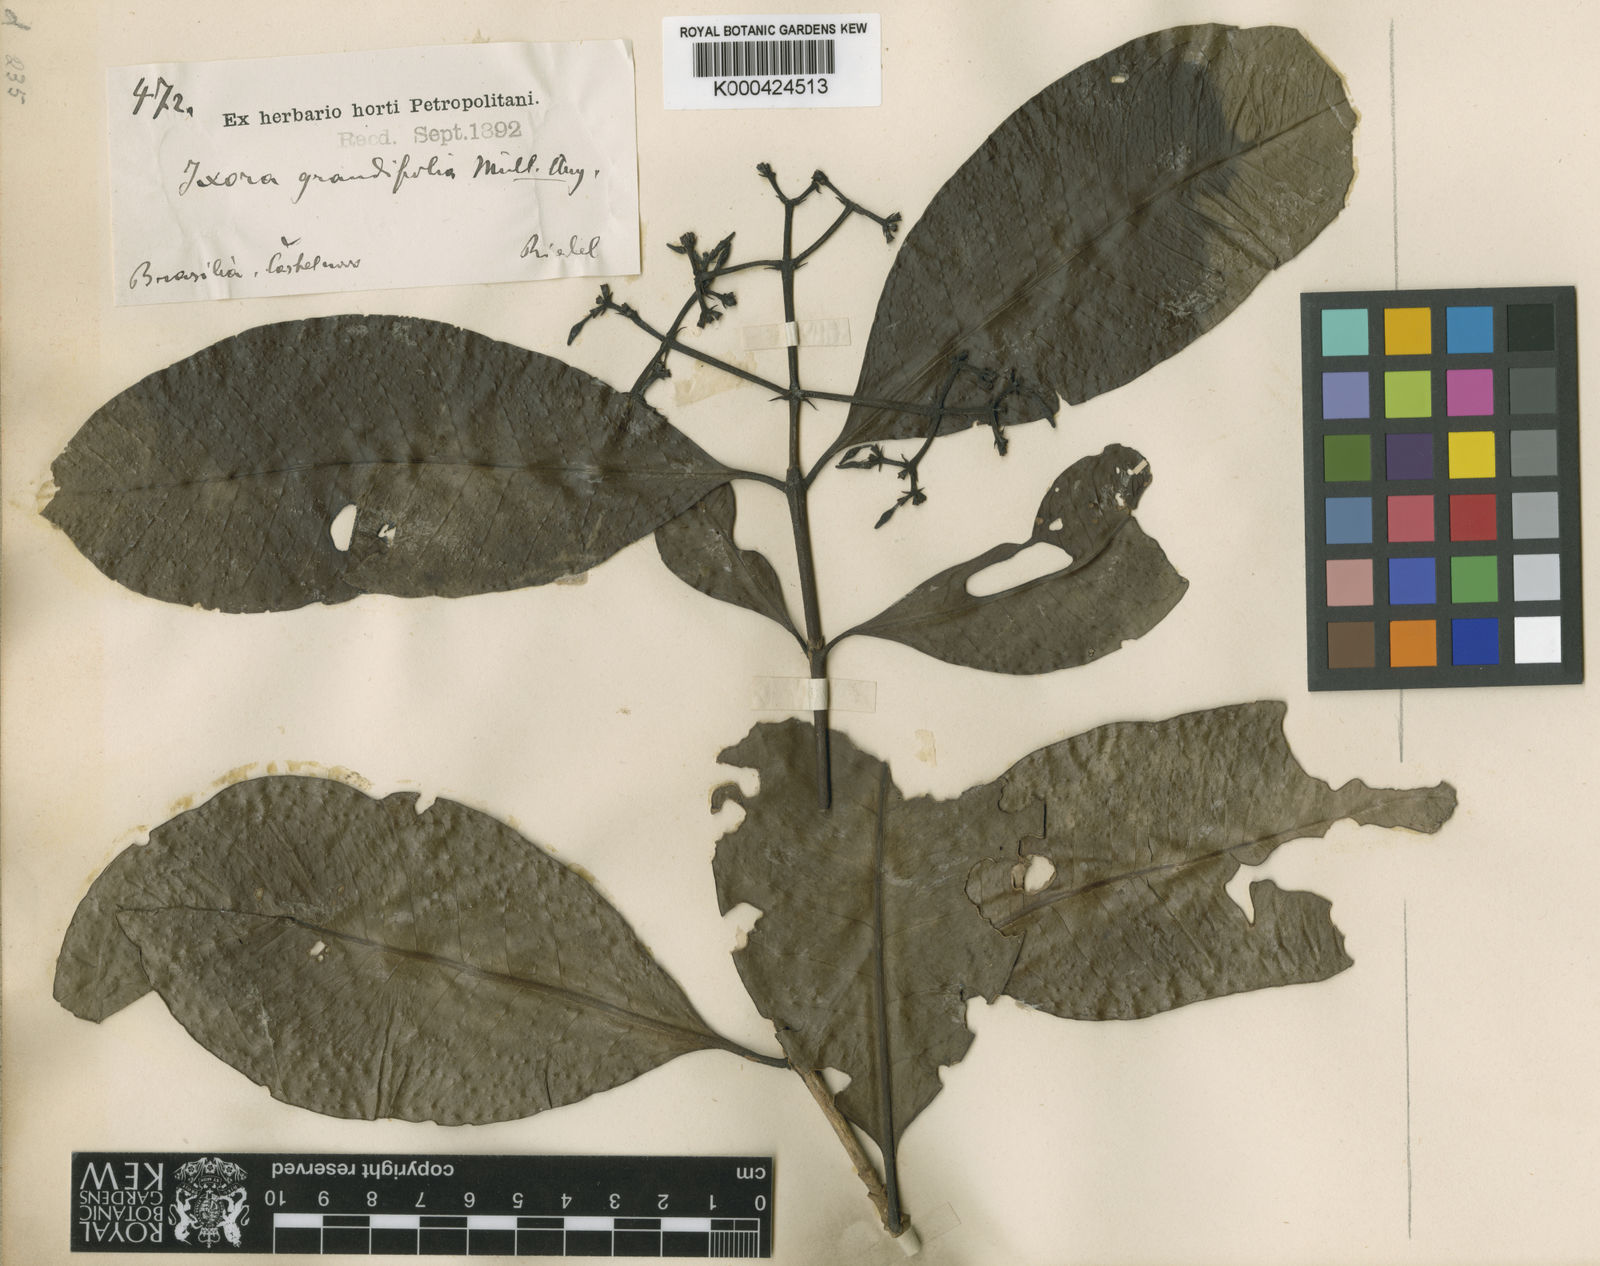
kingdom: Plantae
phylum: Tracheophyta
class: Magnoliopsida
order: Gentianales
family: Rubiaceae
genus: Ixora
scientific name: Ixora gardneriana
